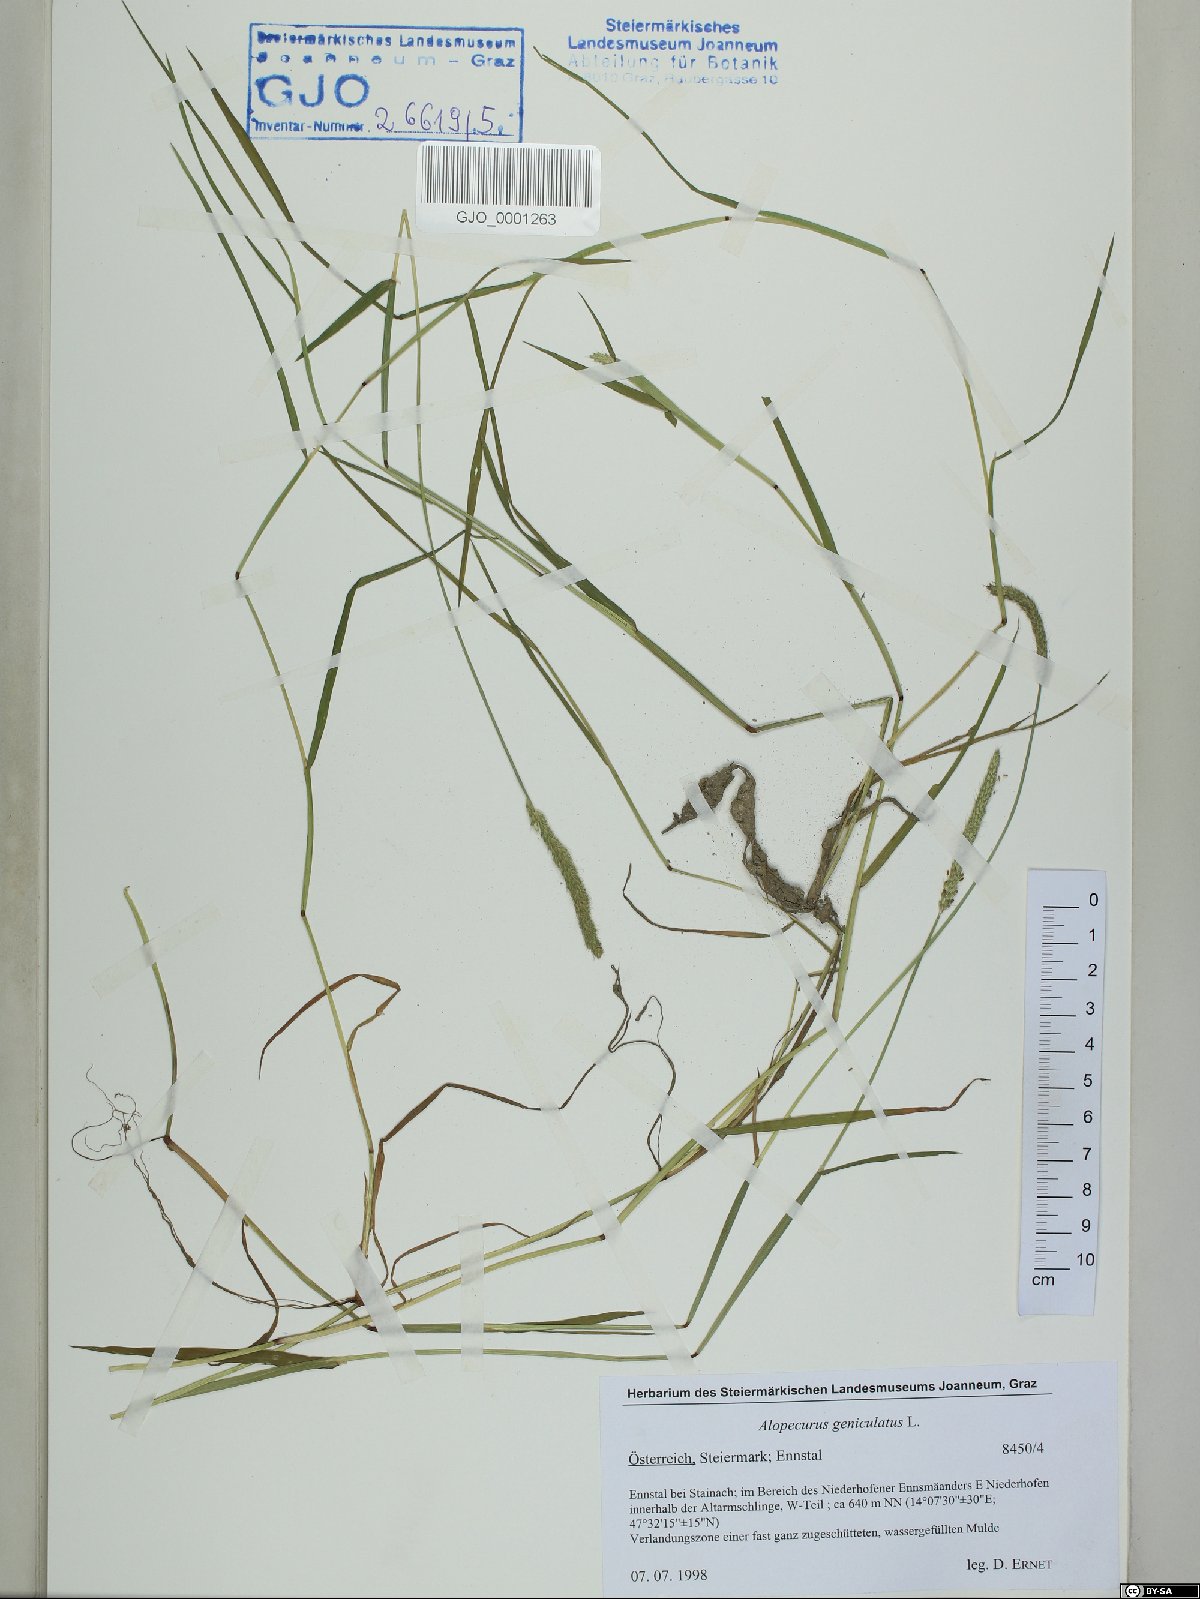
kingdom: Plantae
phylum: Tracheophyta
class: Liliopsida
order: Poales
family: Poaceae
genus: Alopecurus
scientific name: Alopecurus geniculatus
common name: Water foxtail
